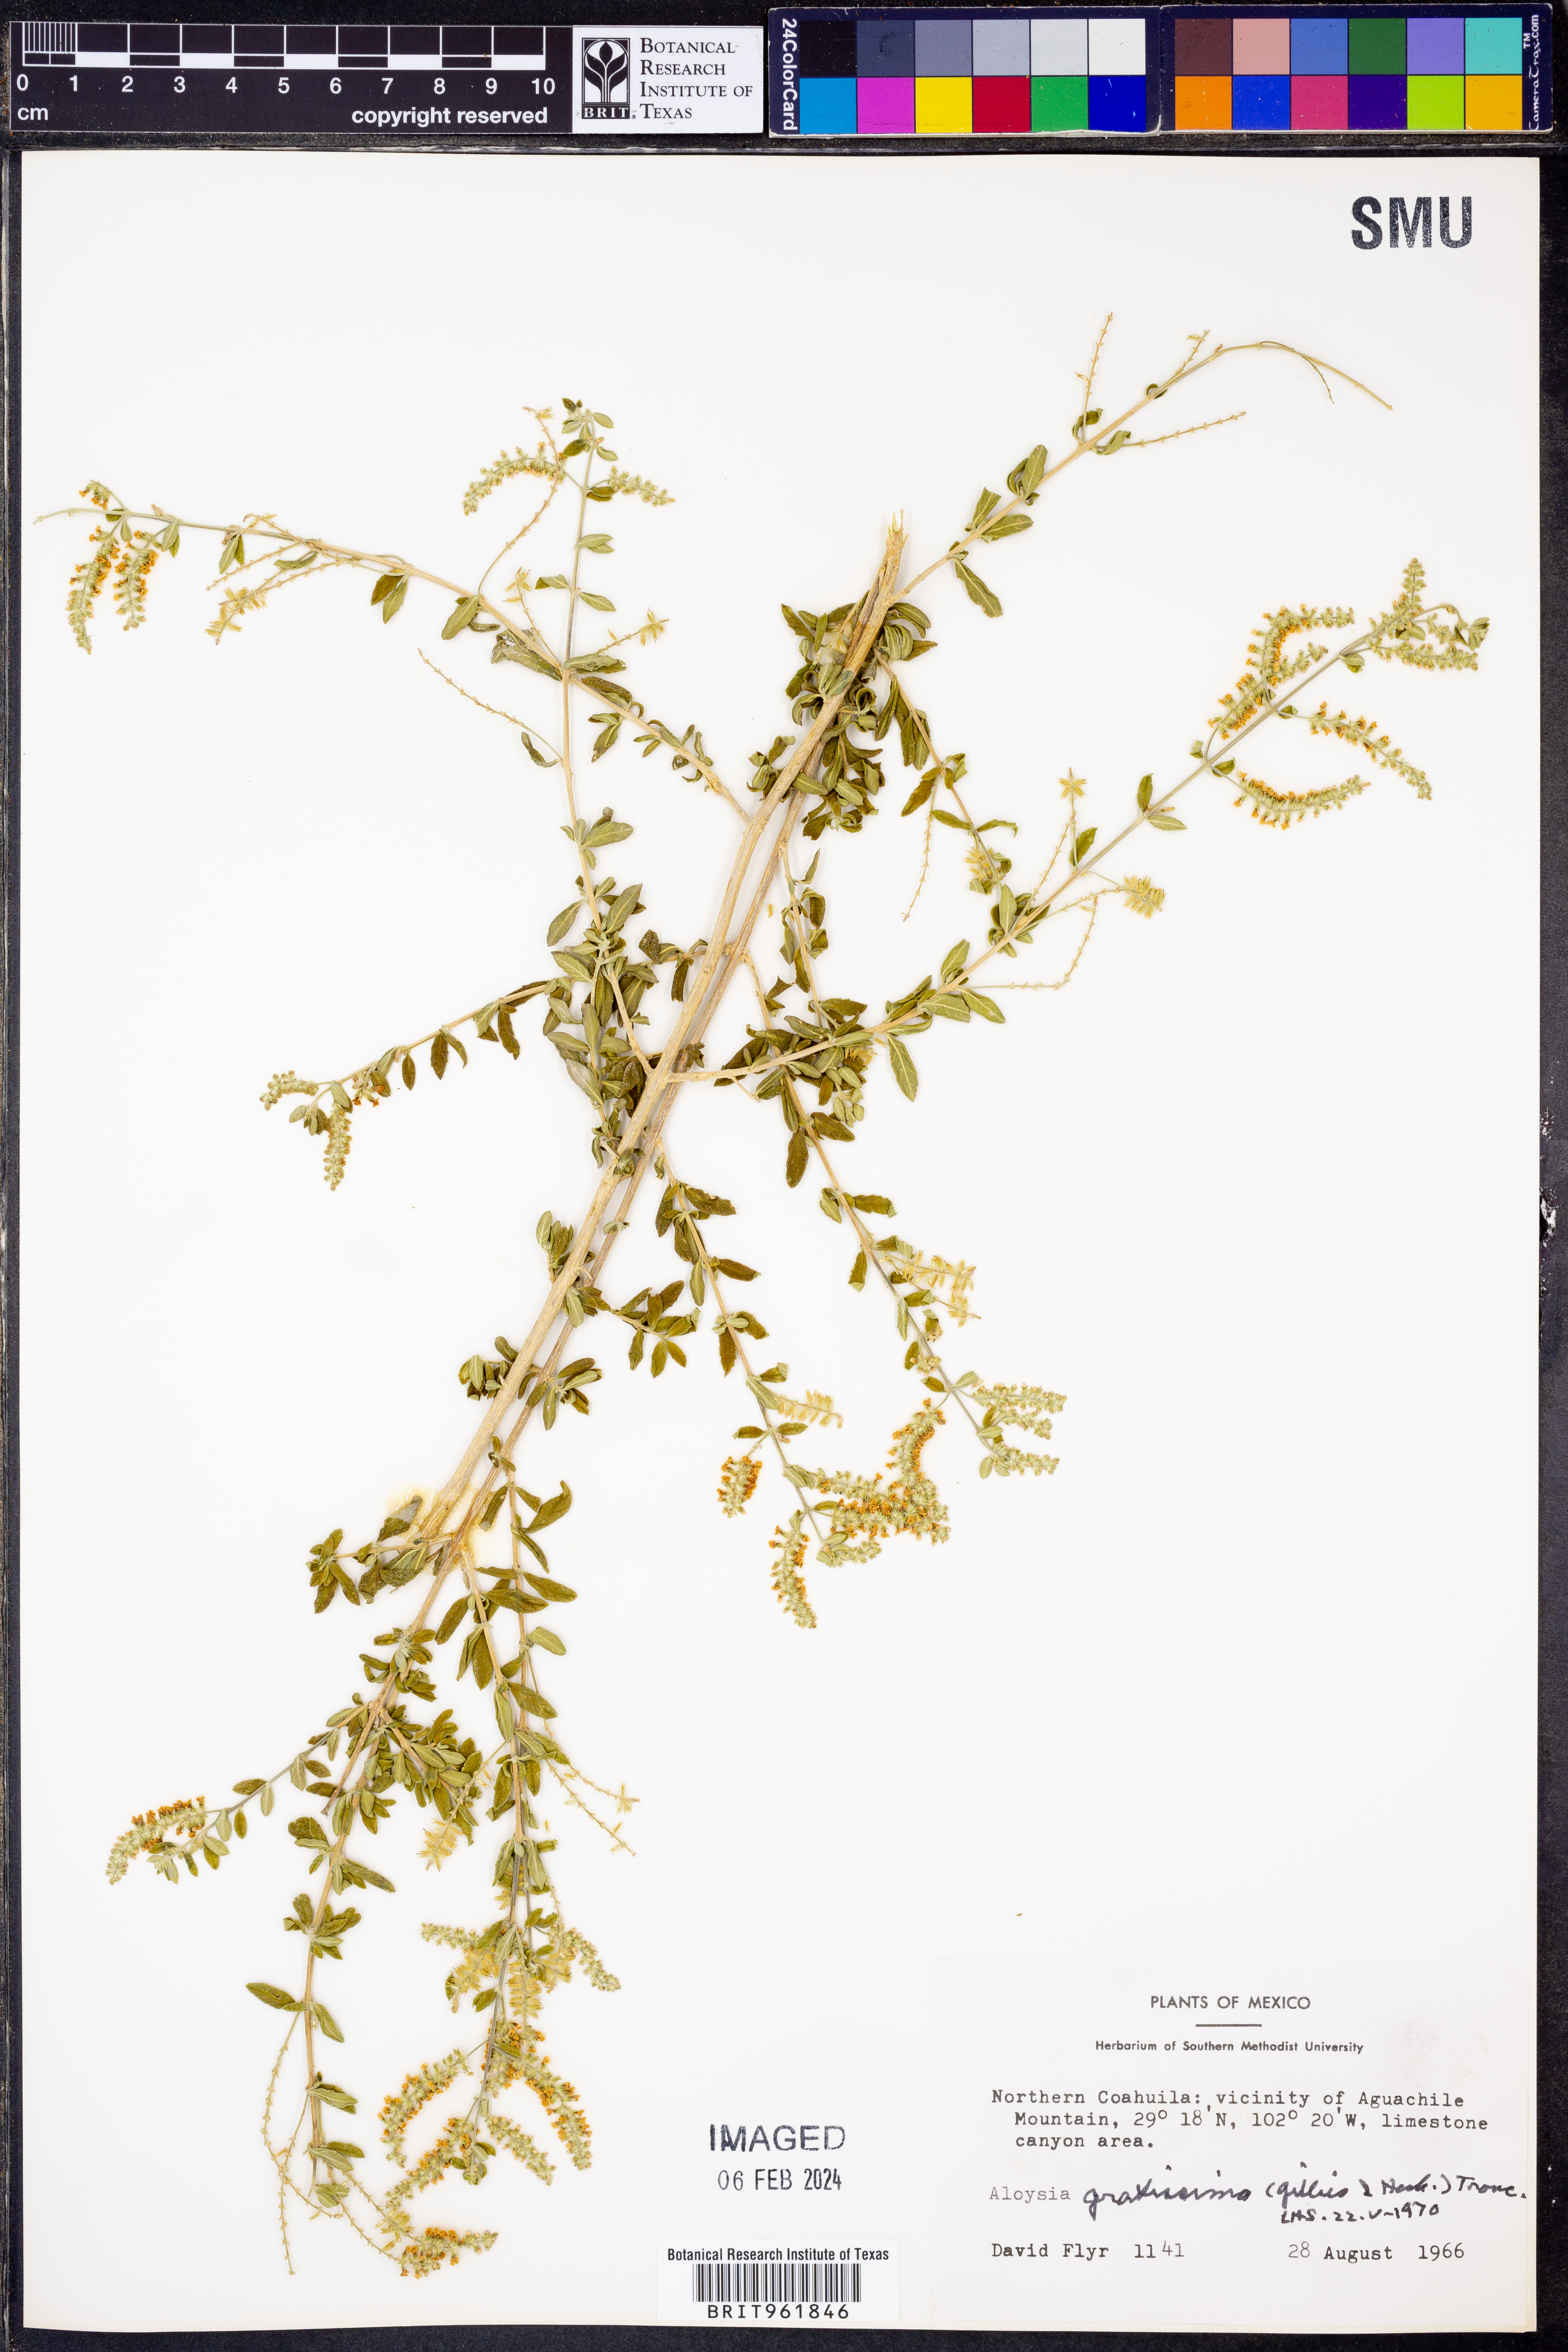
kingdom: Plantae
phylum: Tracheophyta
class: Magnoliopsida
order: Lamiales
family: Verbenaceae
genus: Aloysia
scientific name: Aloysia gratissima
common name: Common bee-brush
